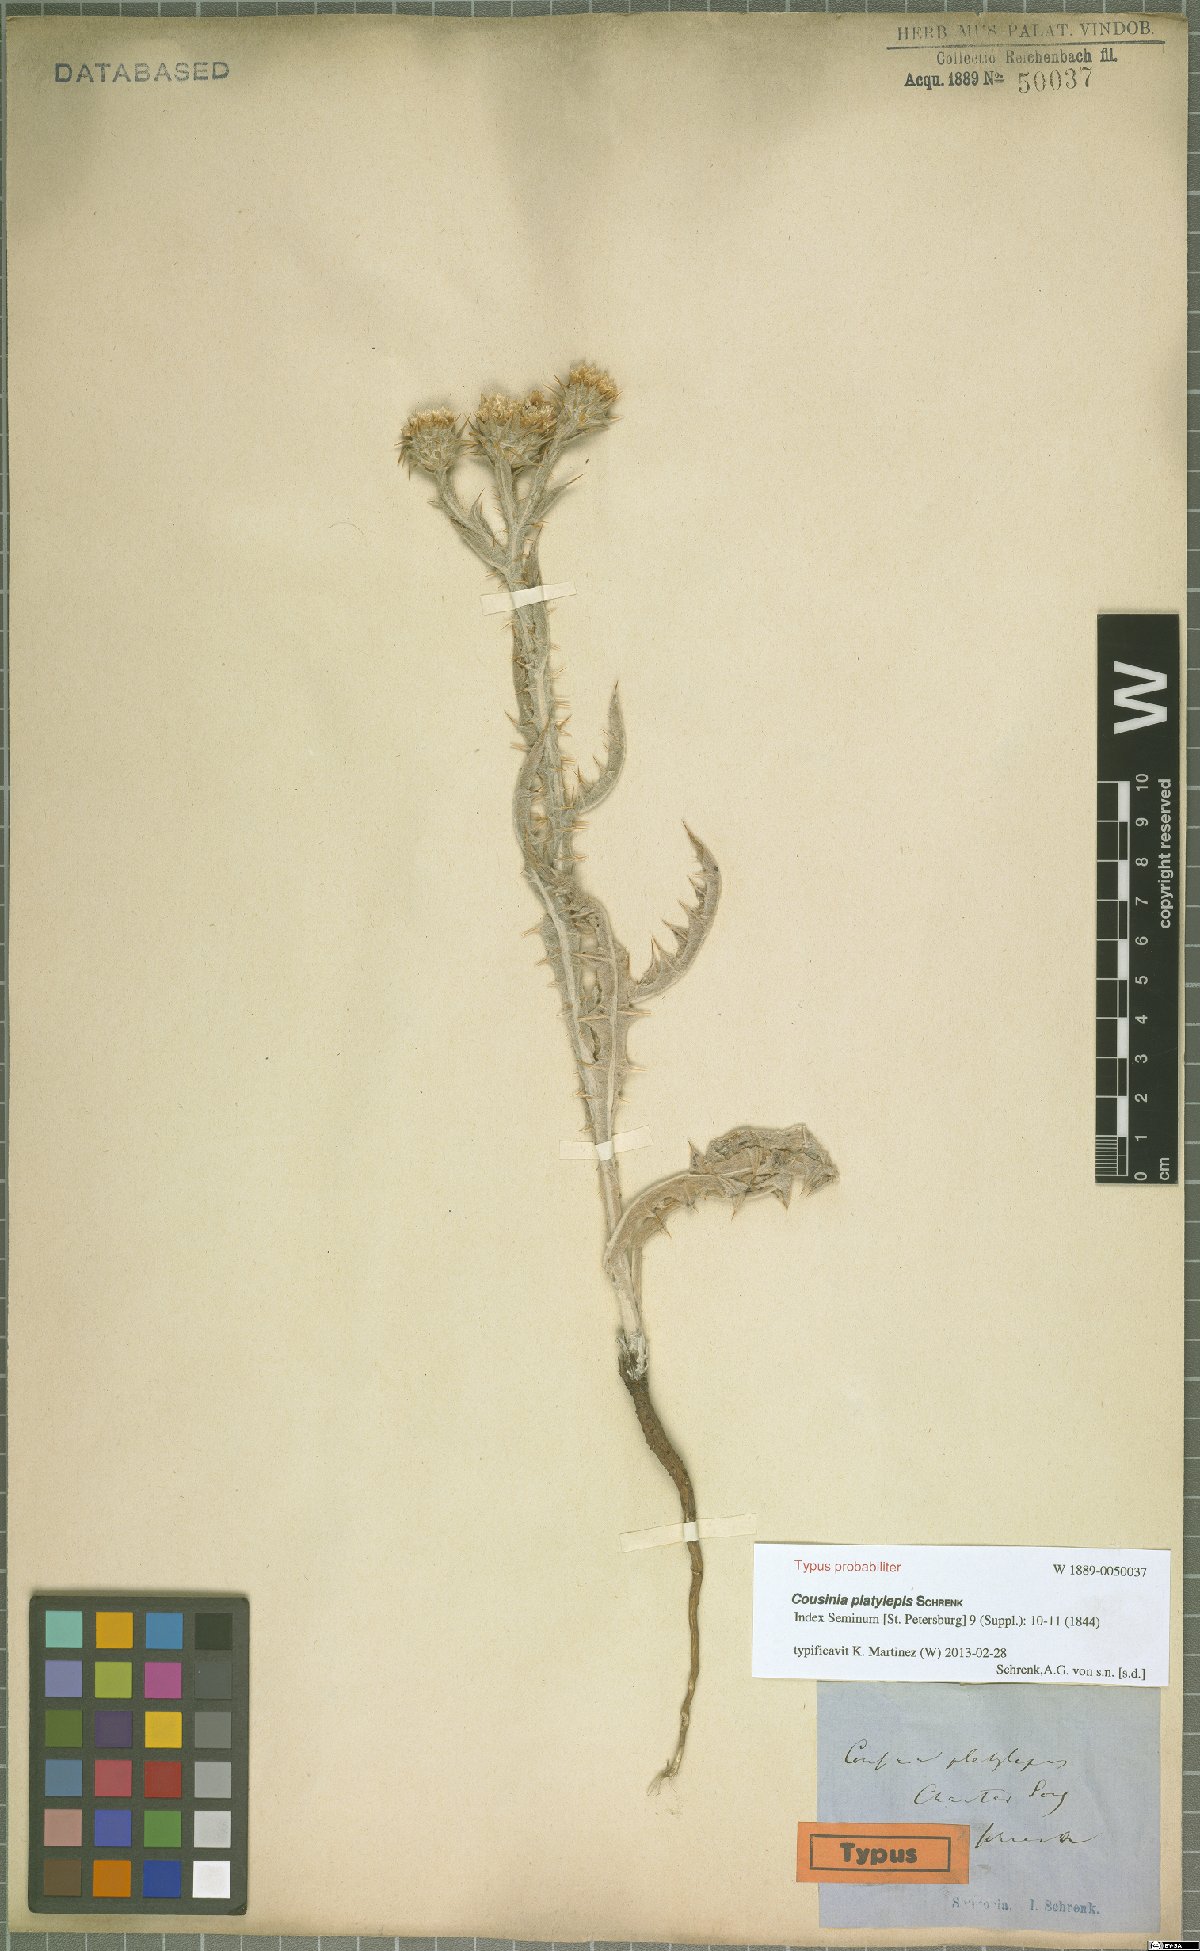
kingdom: Plantae
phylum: Tracheophyta
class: Magnoliopsida
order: Asterales
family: Asteraceae
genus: Cousinia
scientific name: Cousinia platylepis
